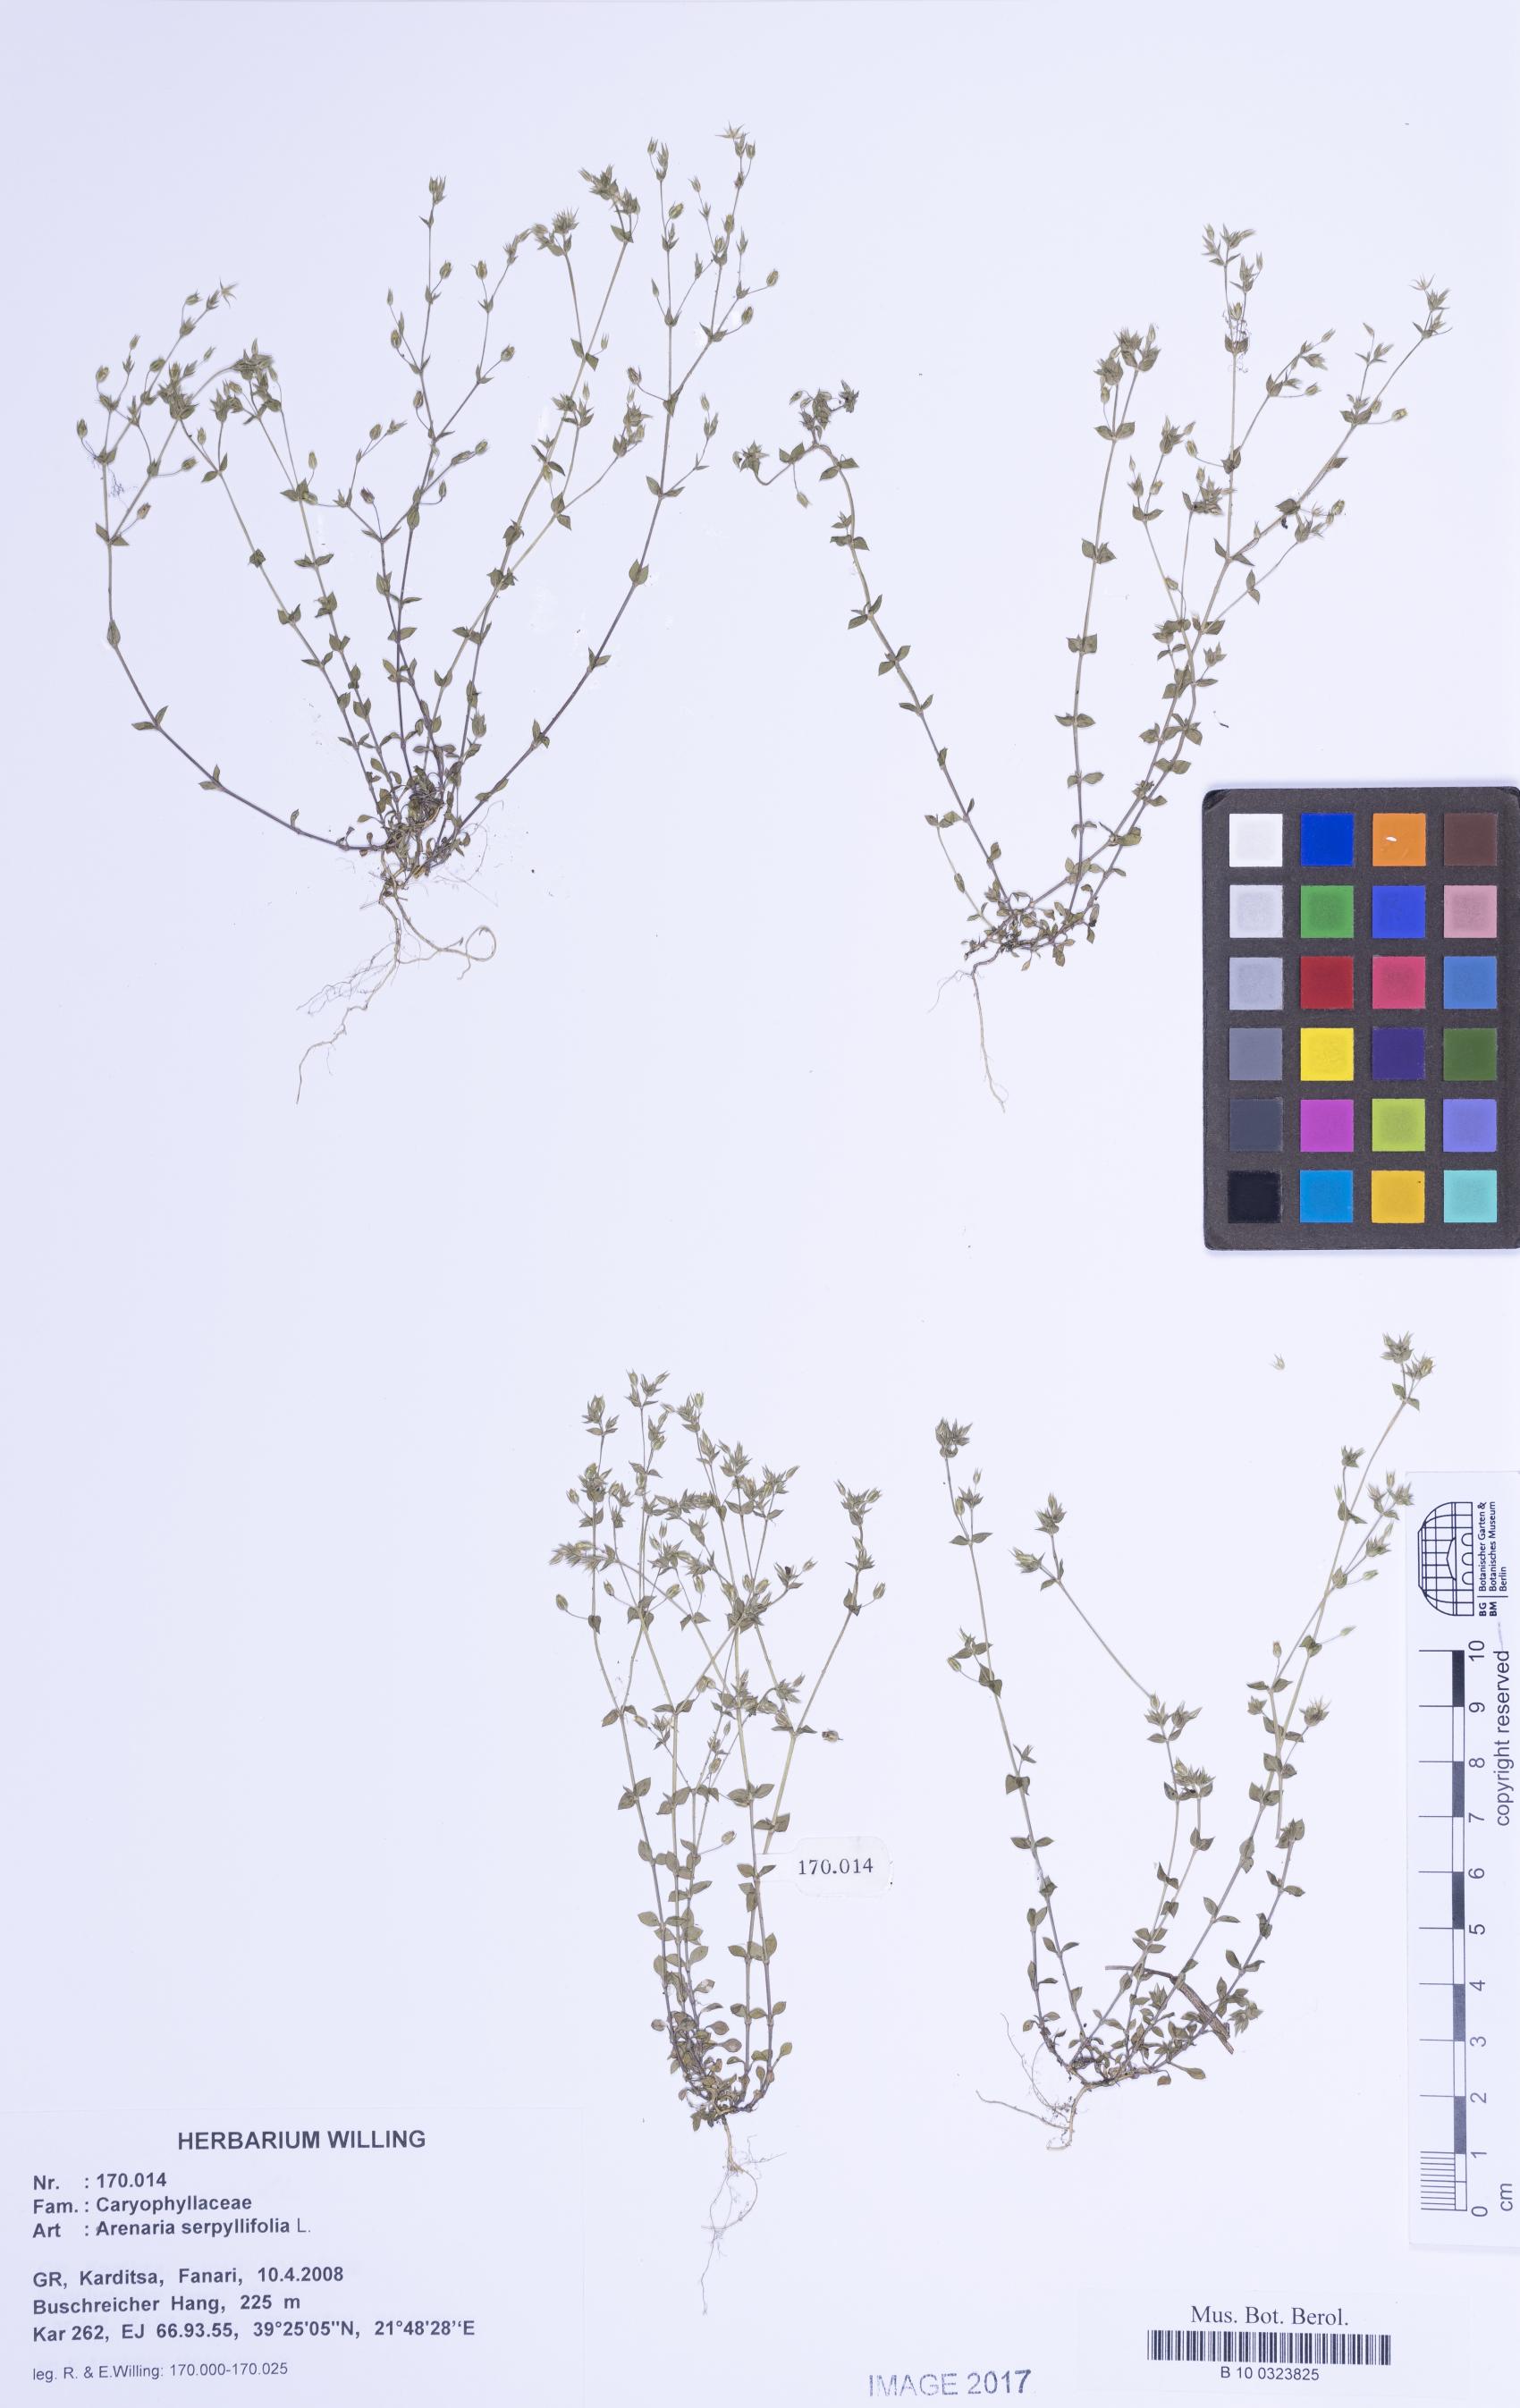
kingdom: Plantae
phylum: Tracheophyta
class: Magnoliopsida
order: Caryophyllales
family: Caryophyllaceae
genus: Arenaria
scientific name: Arenaria serpyllifolia
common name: Thyme-leaved sandwort
